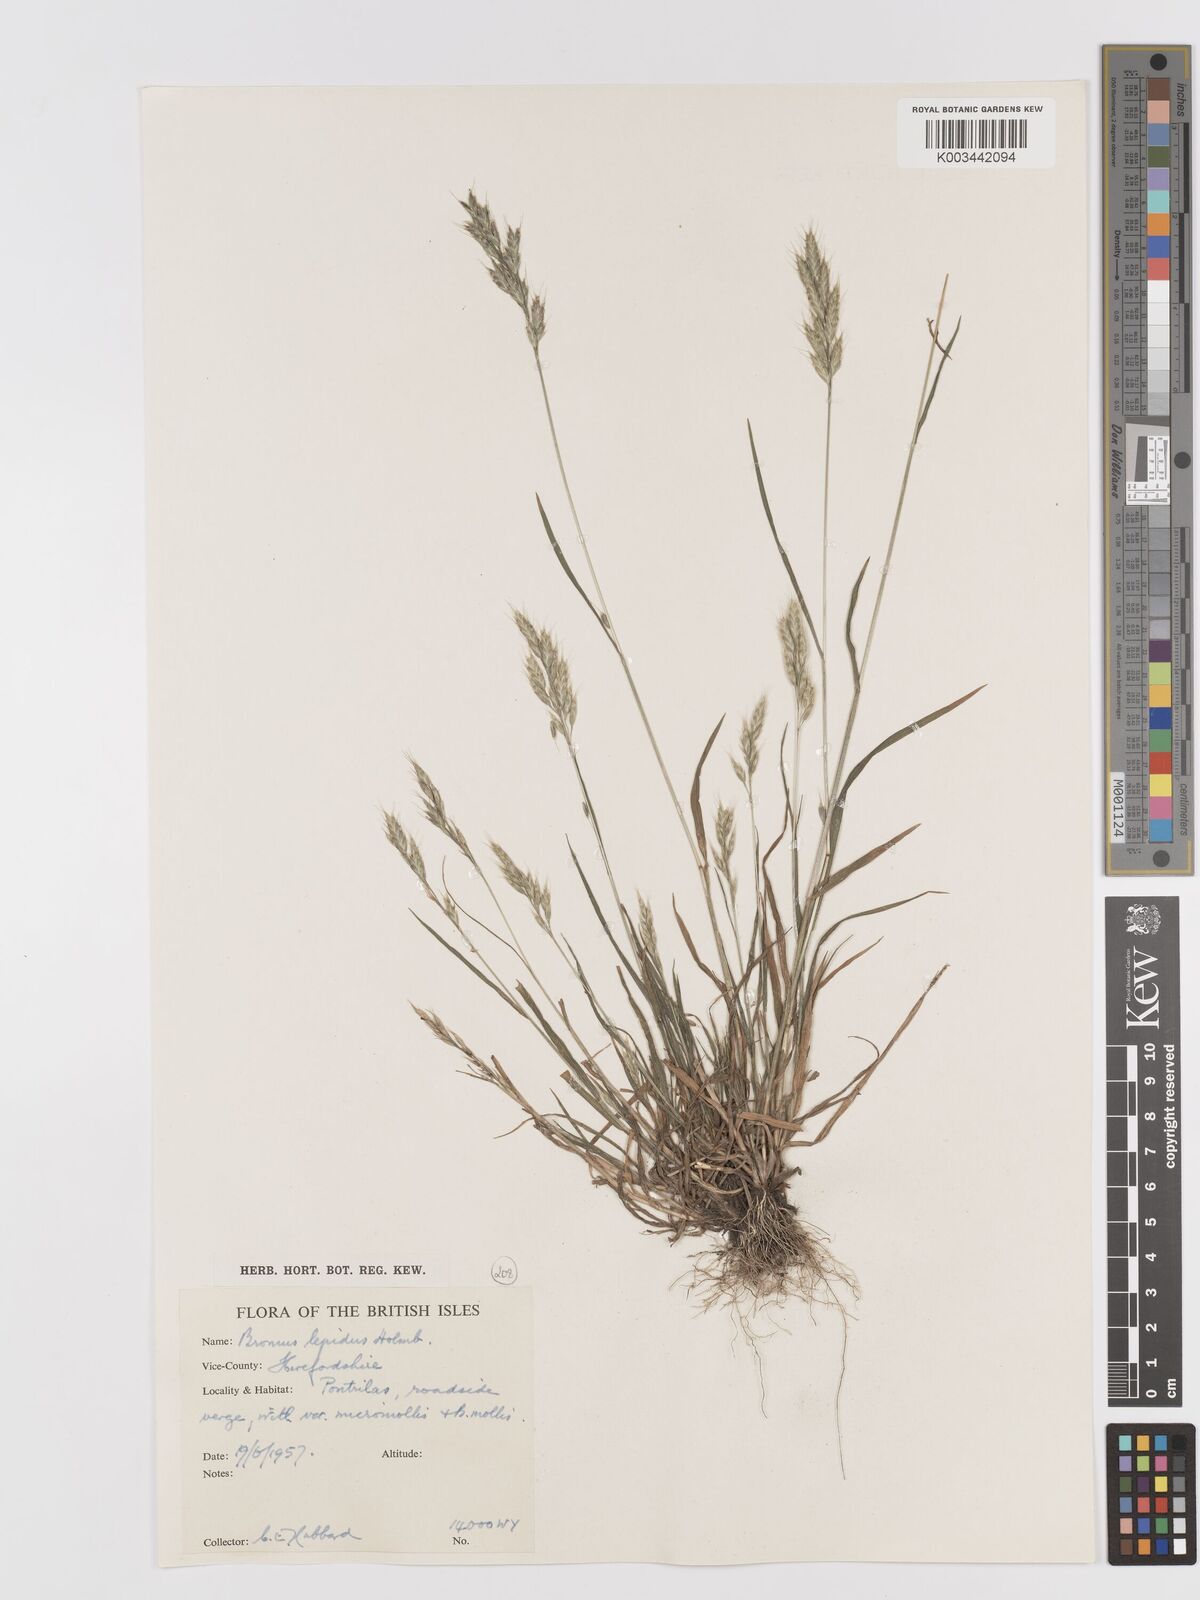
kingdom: Plantae
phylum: Tracheophyta
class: Liliopsida
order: Poales
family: Poaceae
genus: Bromus
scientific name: Bromus lepidus
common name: Slender soft-brome
